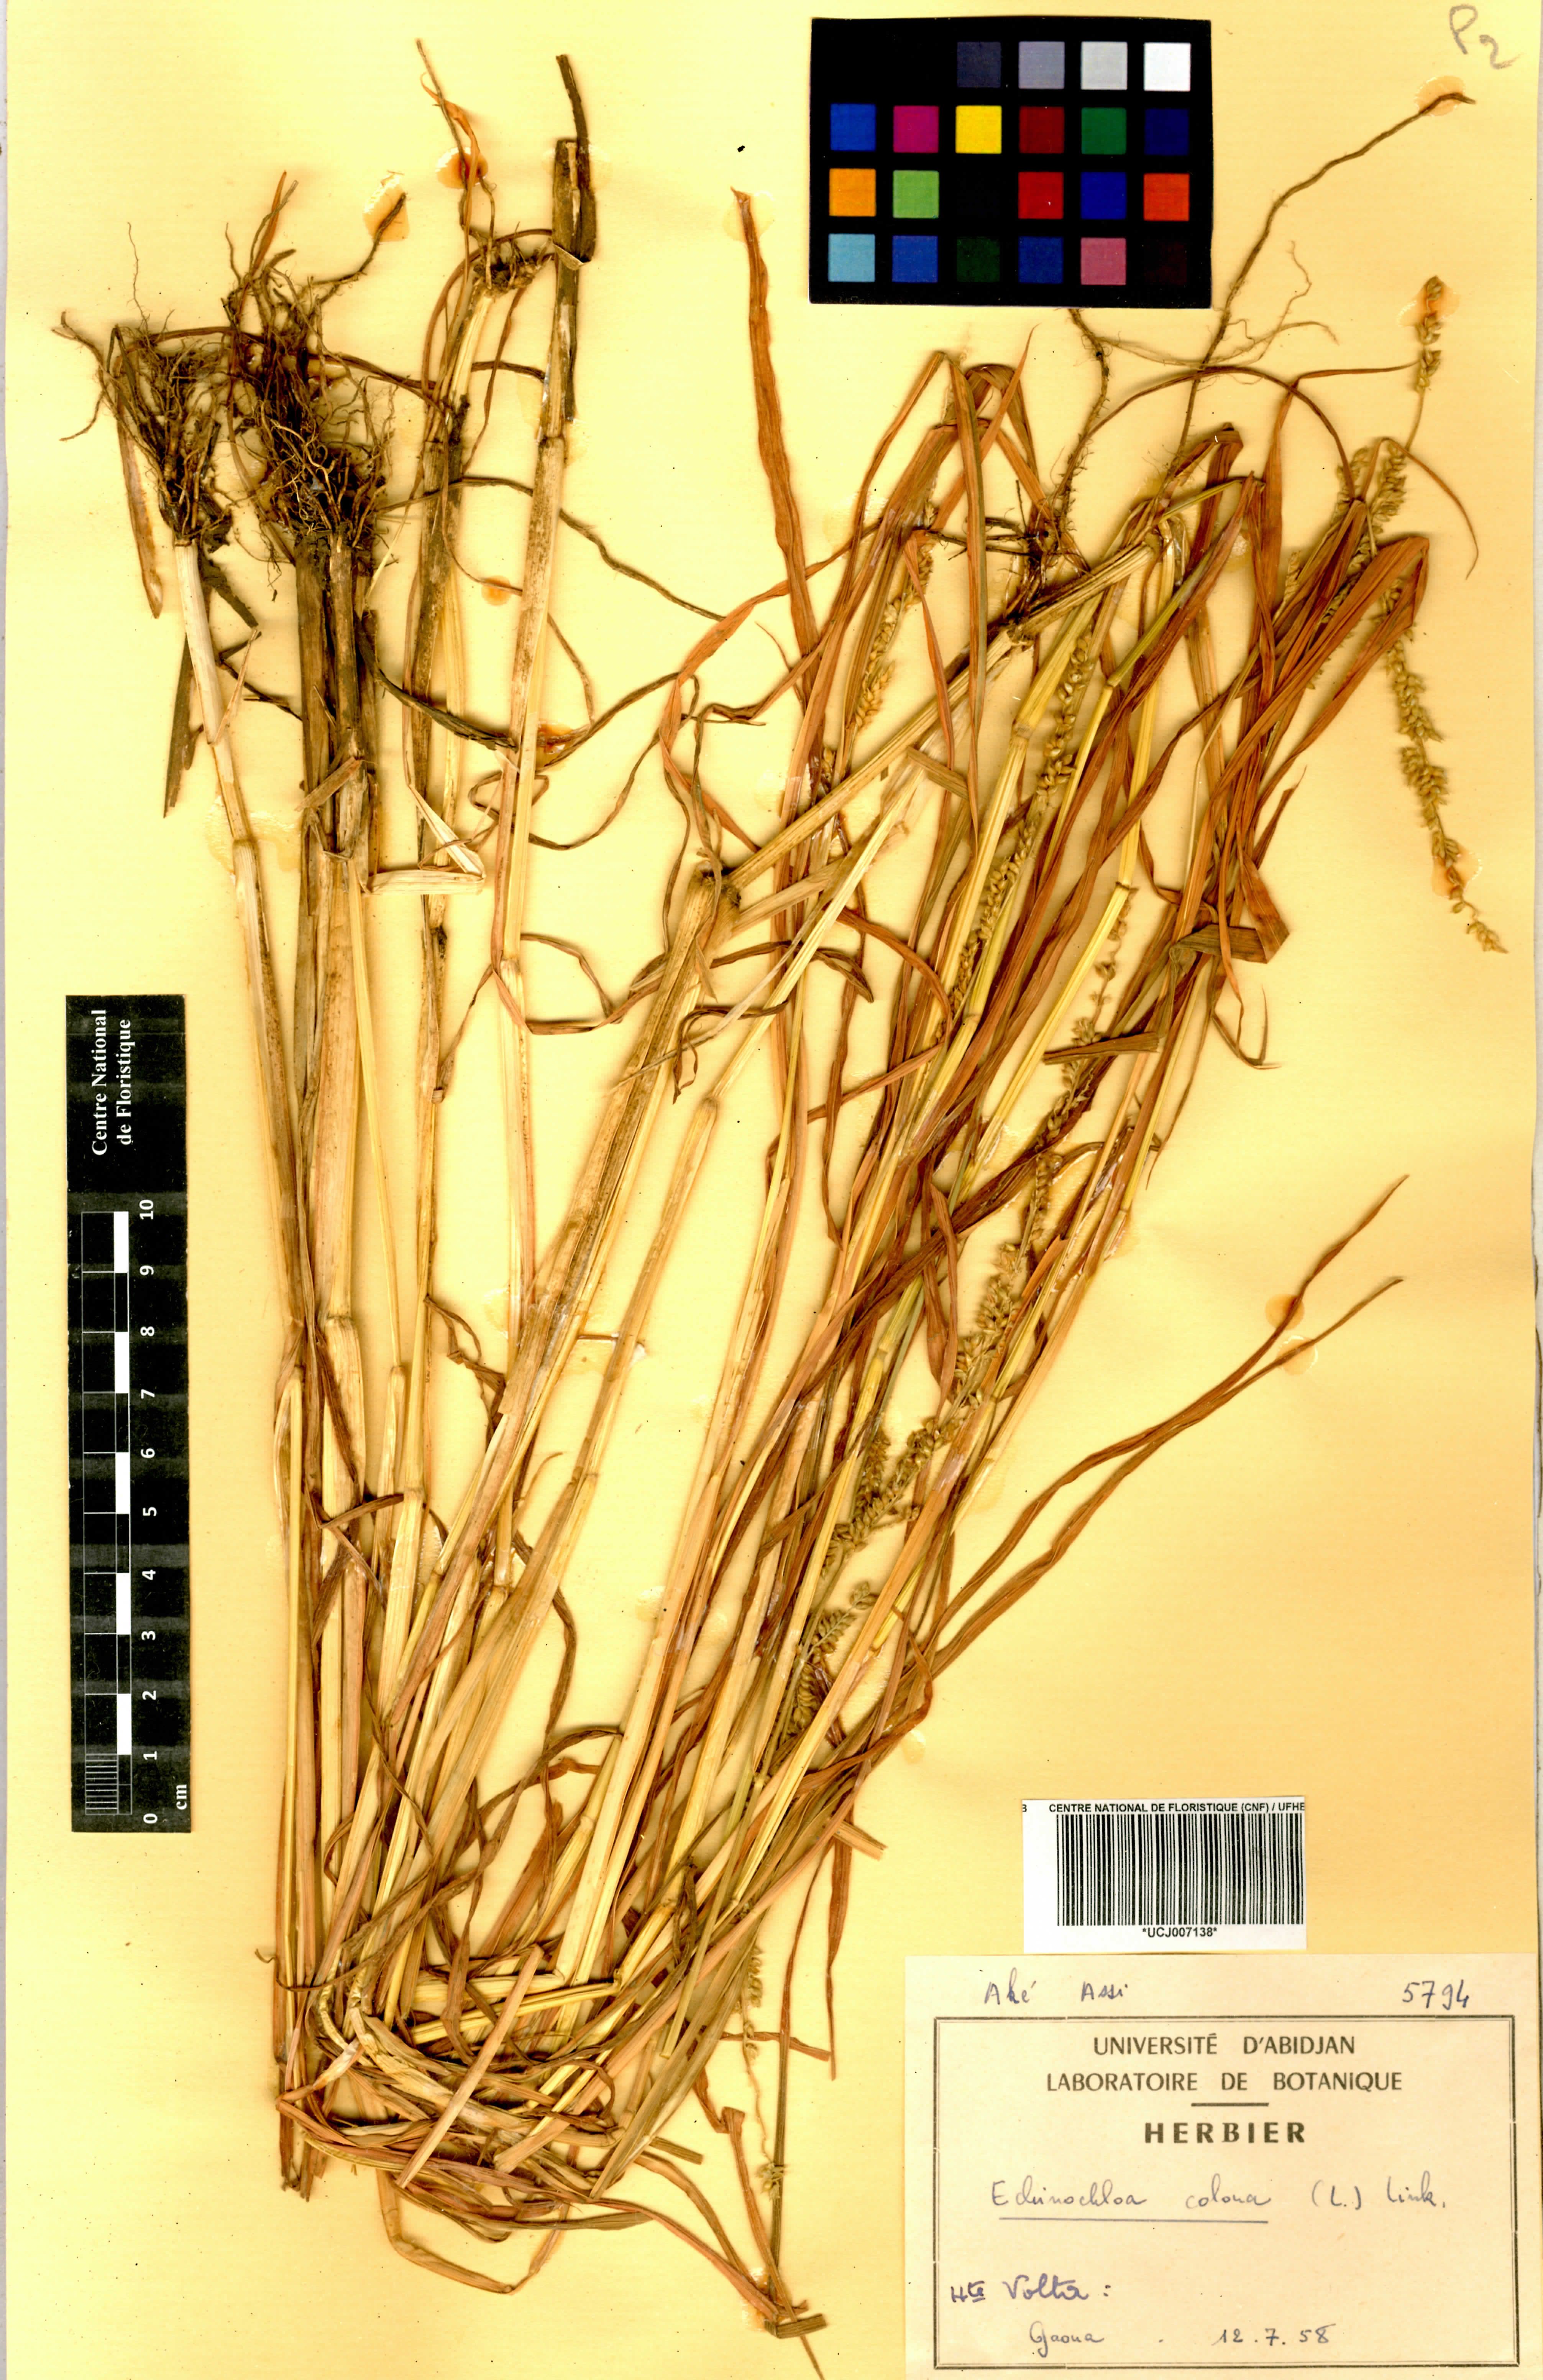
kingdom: Plantae
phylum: Tracheophyta
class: Liliopsida
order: Poales
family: Poaceae
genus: Echinochloa
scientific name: Echinochloa colonum
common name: Jungle rice
